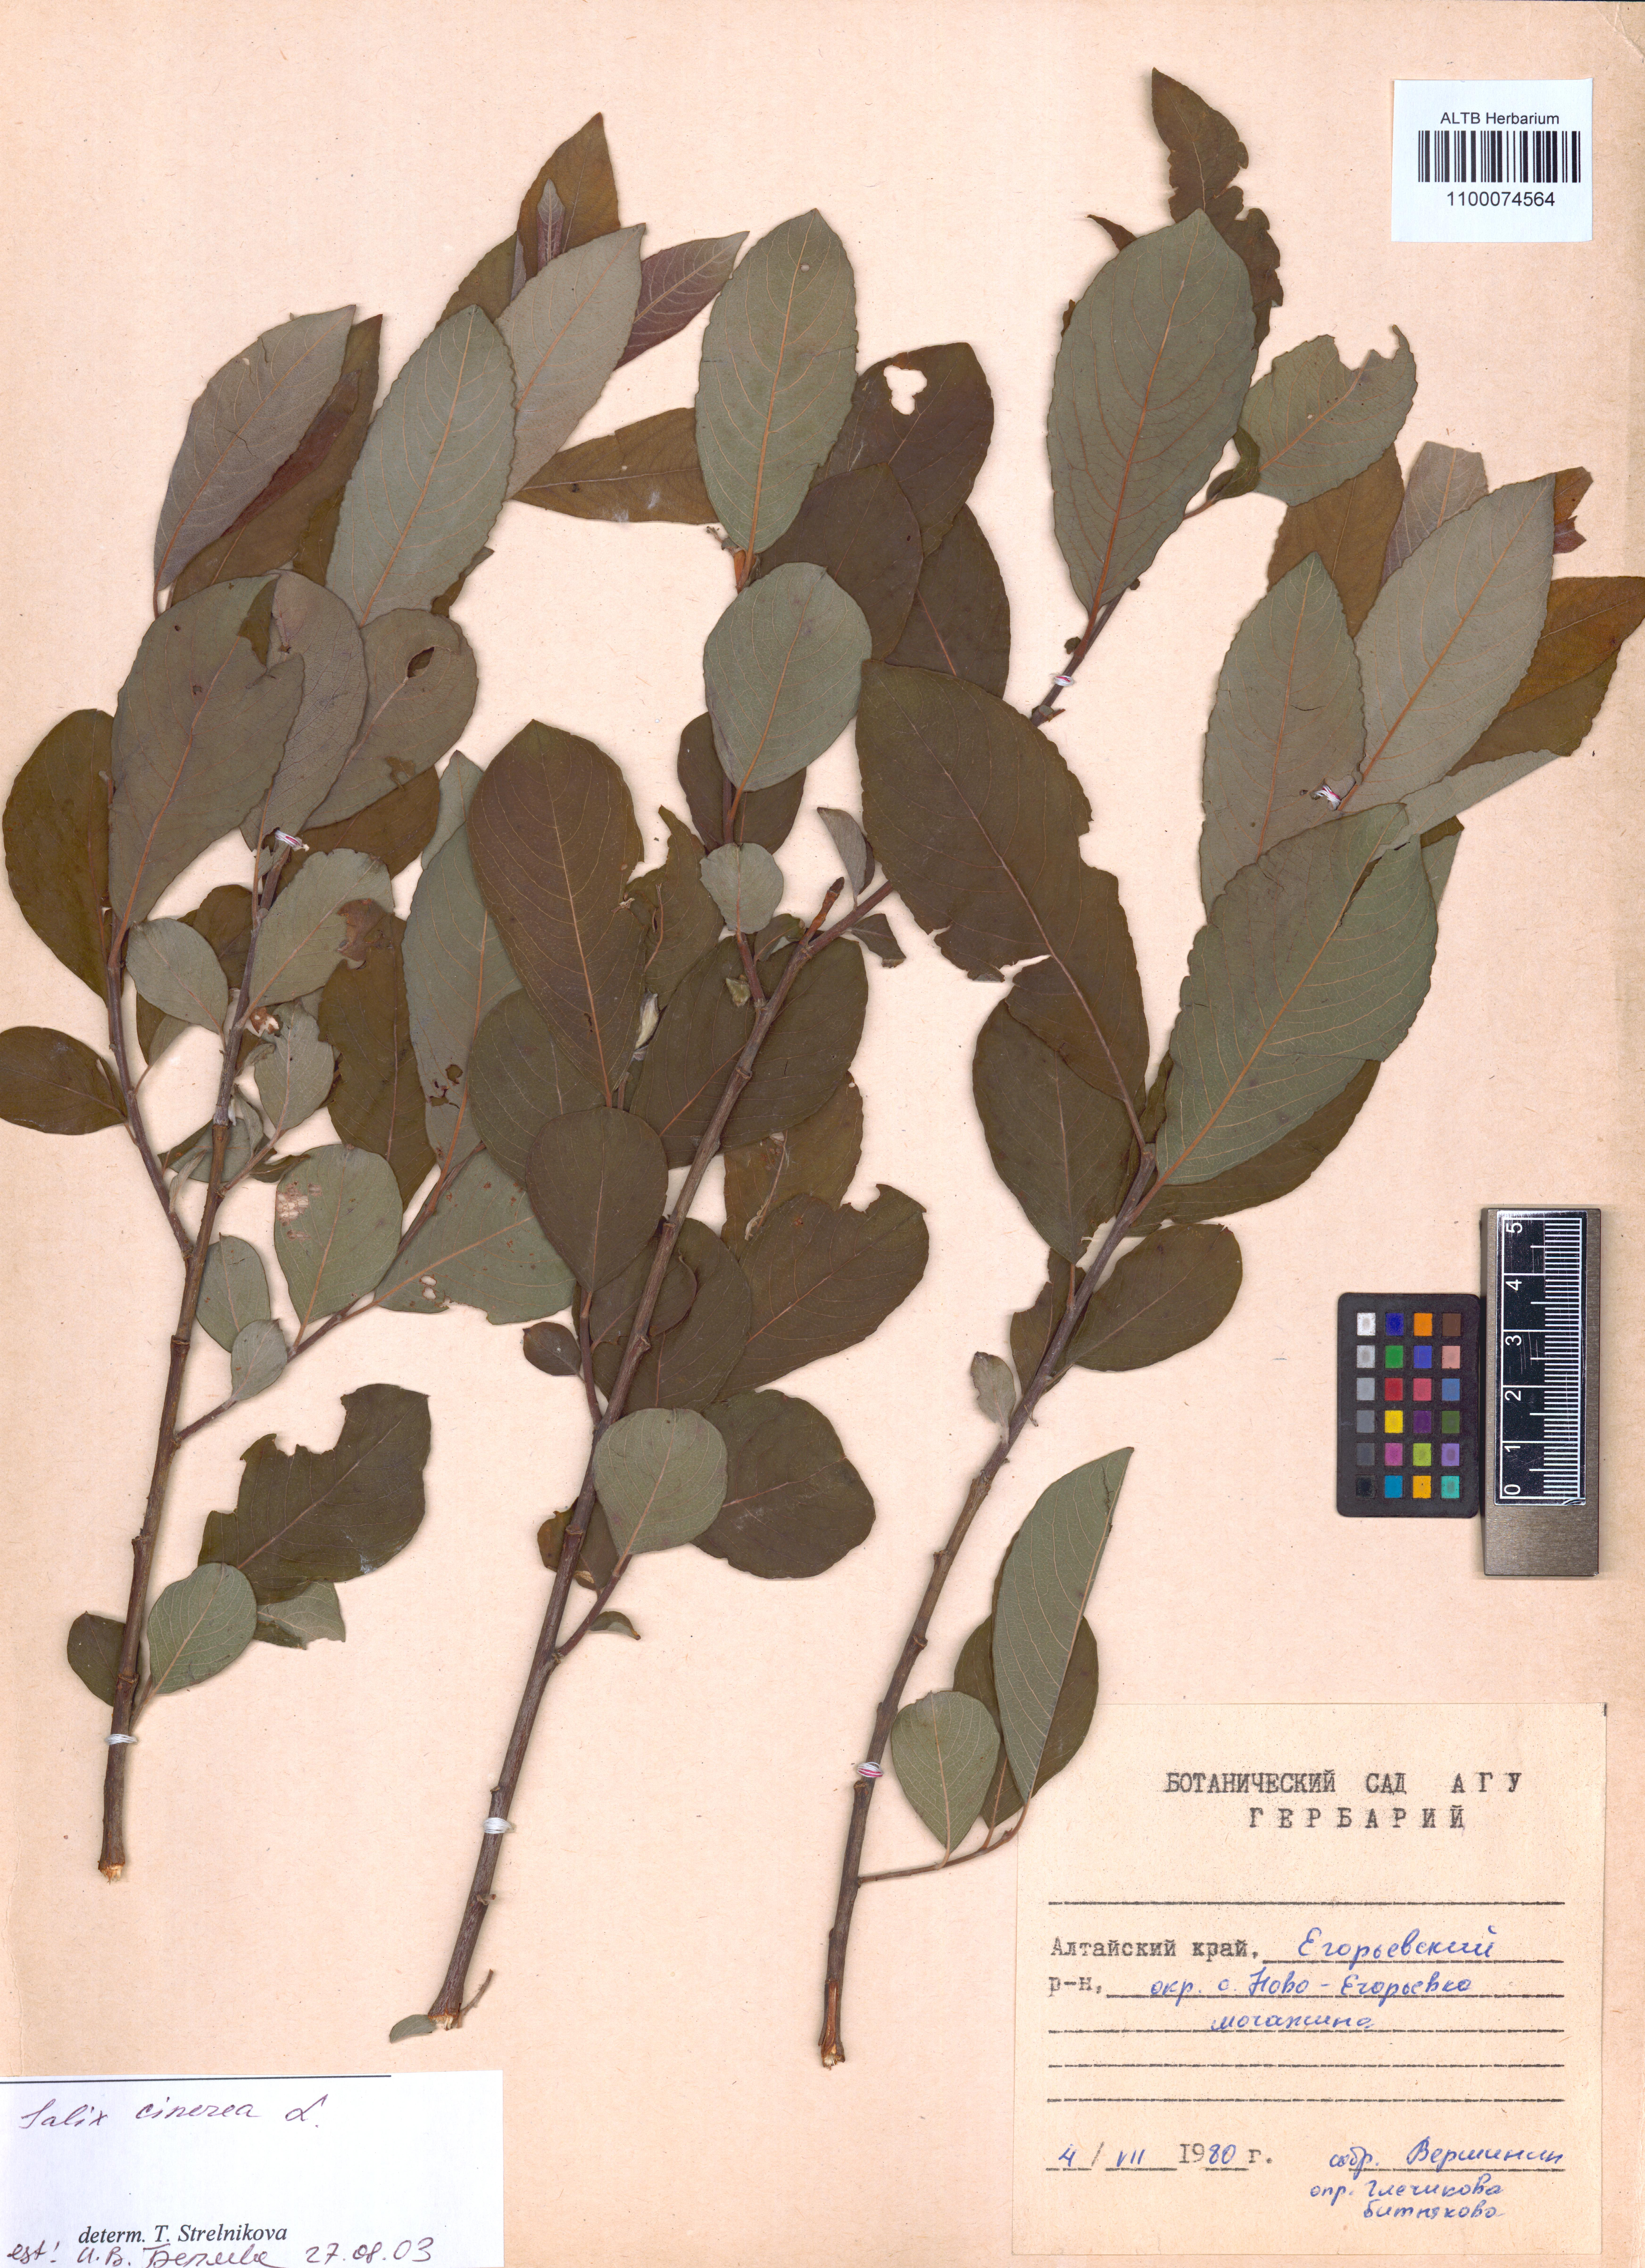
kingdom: Plantae
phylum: Tracheophyta
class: Magnoliopsida
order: Malpighiales
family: Salicaceae
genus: Salix
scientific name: Salix cinerea
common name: Common sallow
